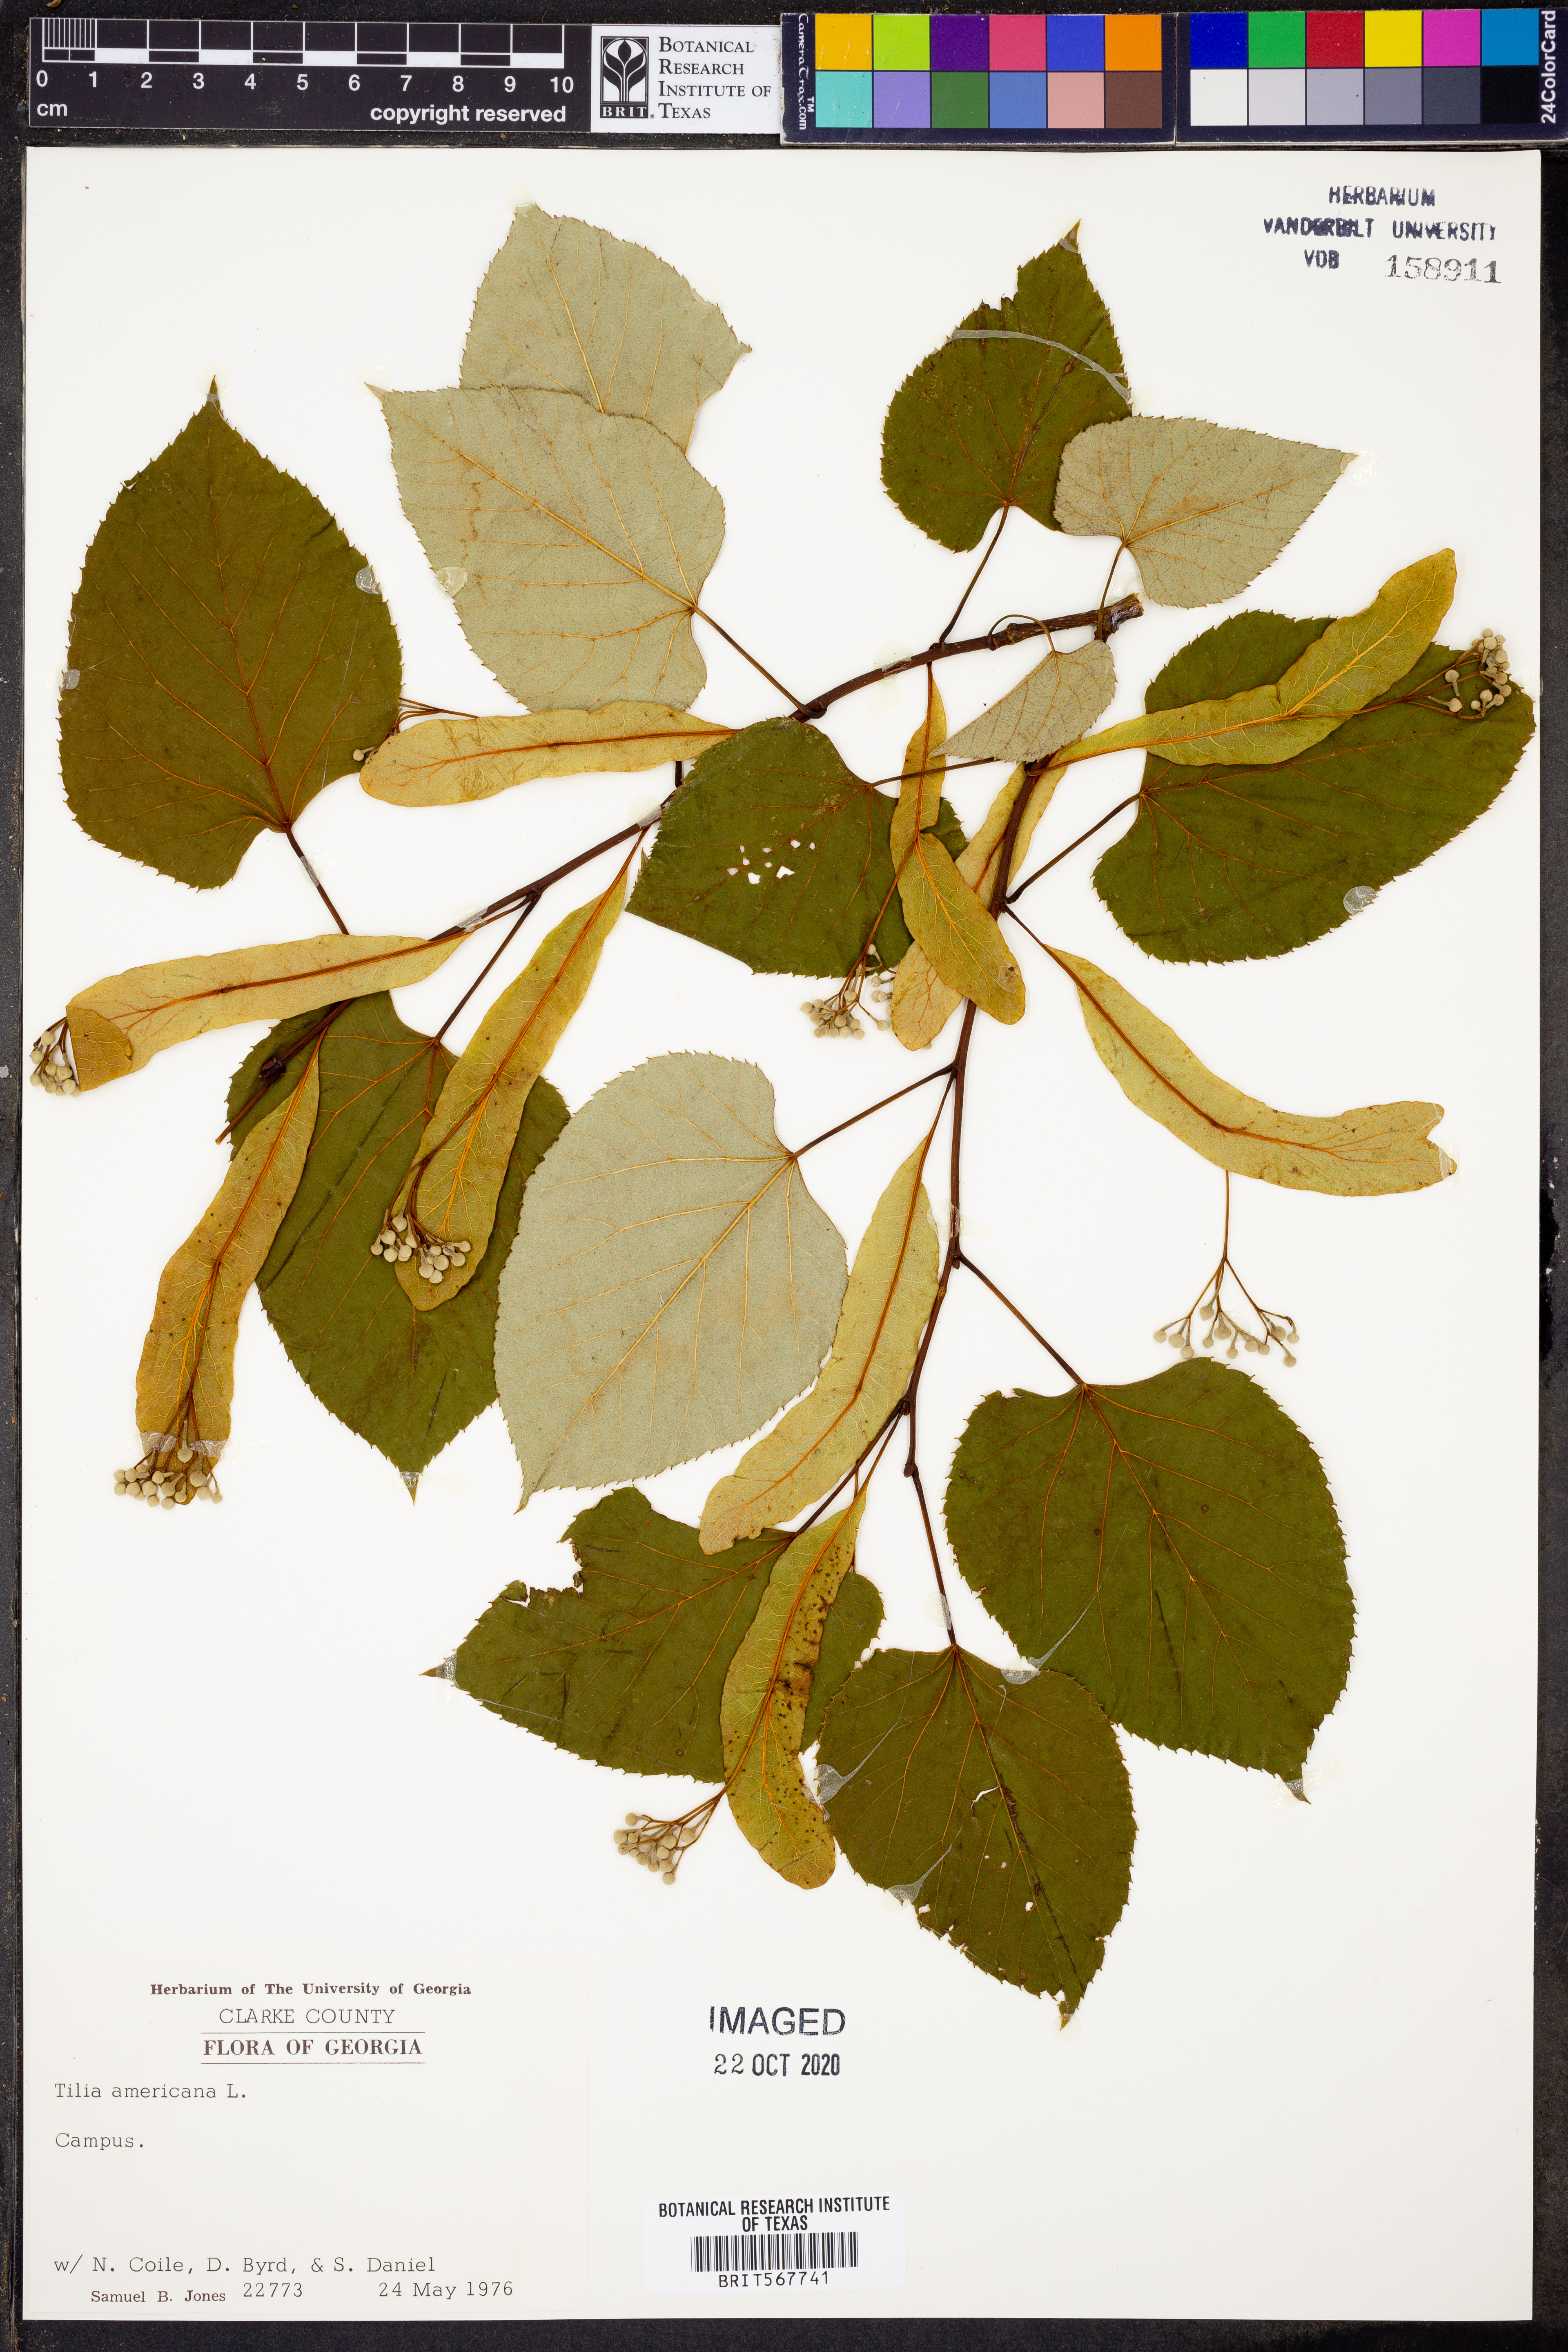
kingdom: Plantae
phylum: Tracheophyta
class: Magnoliopsida
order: Malvales
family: Malvaceae
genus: Tilia
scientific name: Tilia americana
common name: Basswood
